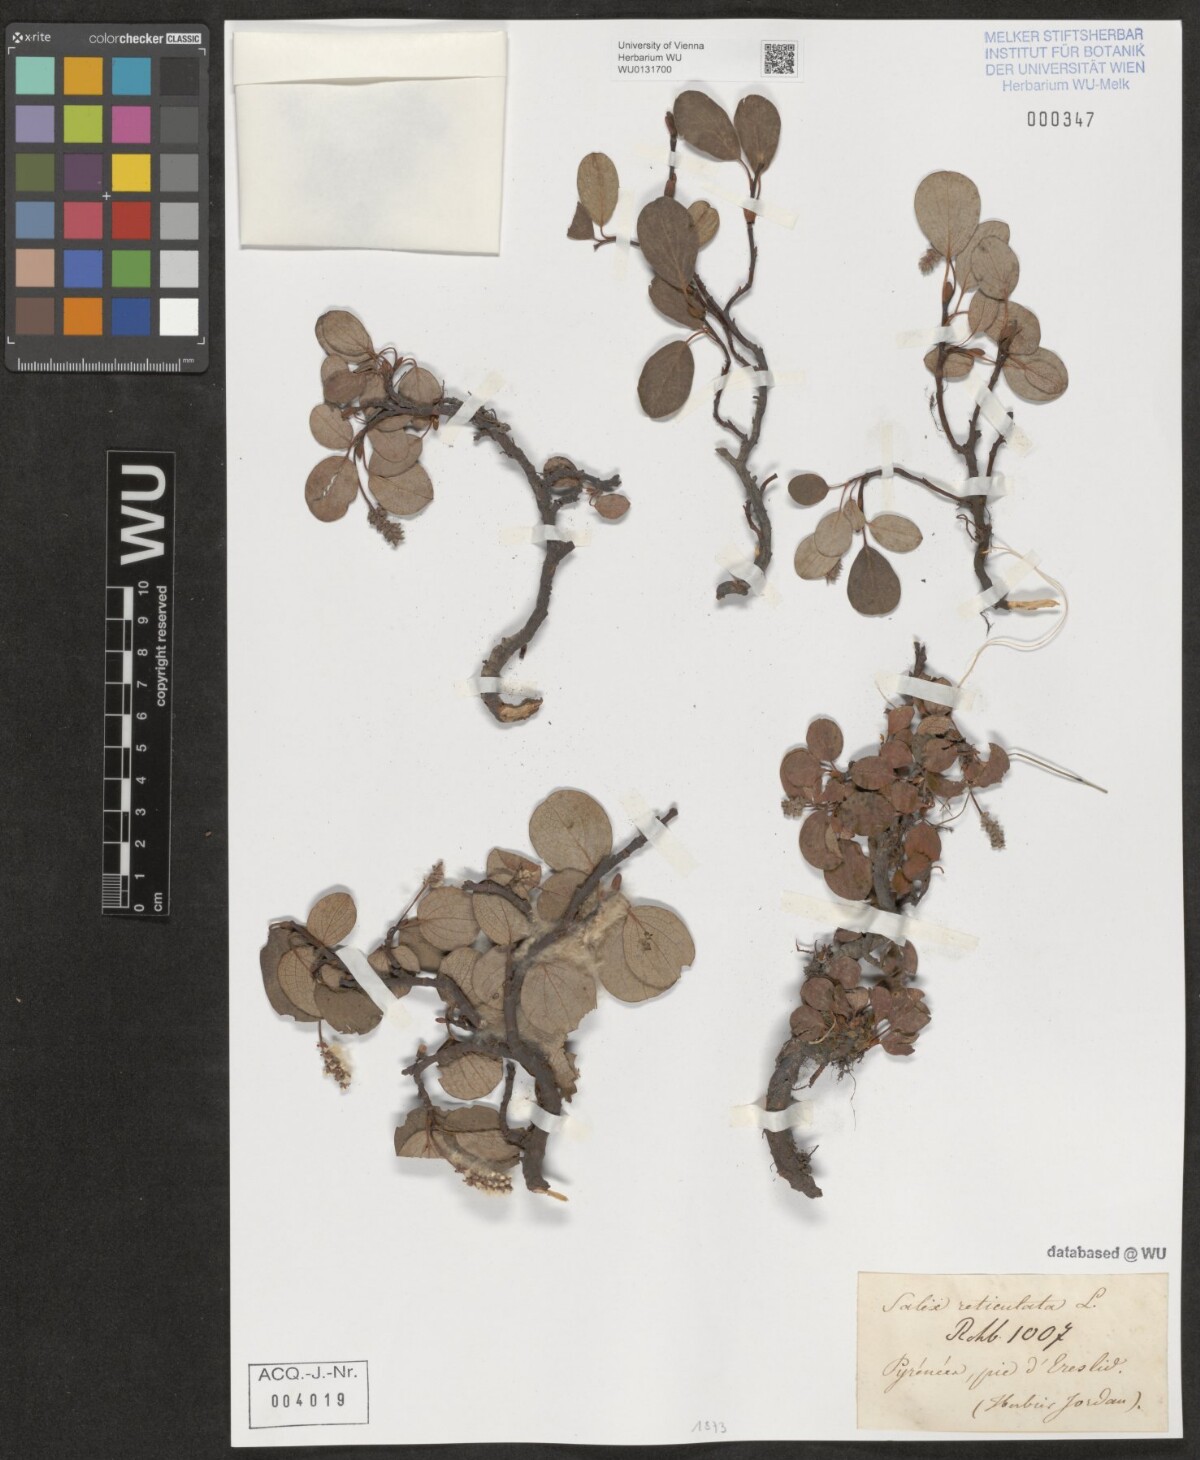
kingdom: Plantae
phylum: Tracheophyta
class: Magnoliopsida
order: Malpighiales
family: Salicaceae
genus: Salix
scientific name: Salix reticulata
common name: Net-leaved willow
